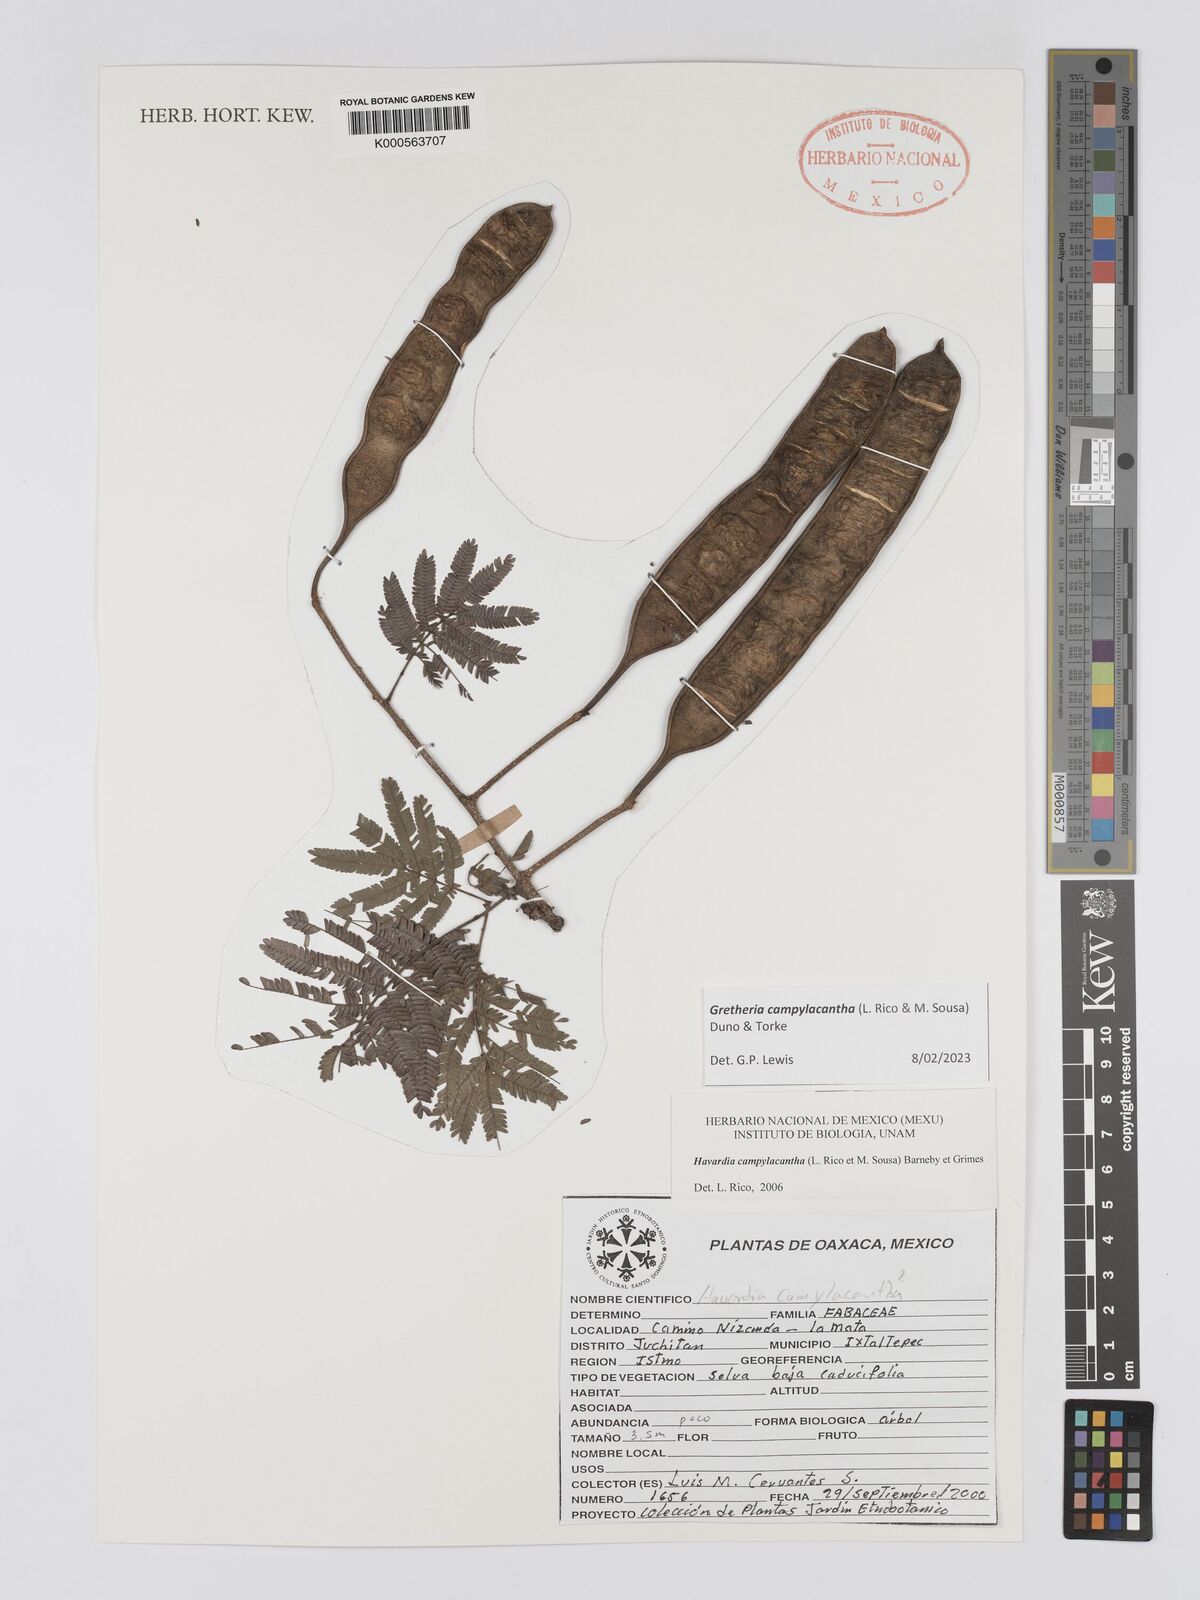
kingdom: Plantae
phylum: Tracheophyta
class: Magnoliopsida
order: Fabales
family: Fabaceae
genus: Havardia
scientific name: Havardia campylacantha
